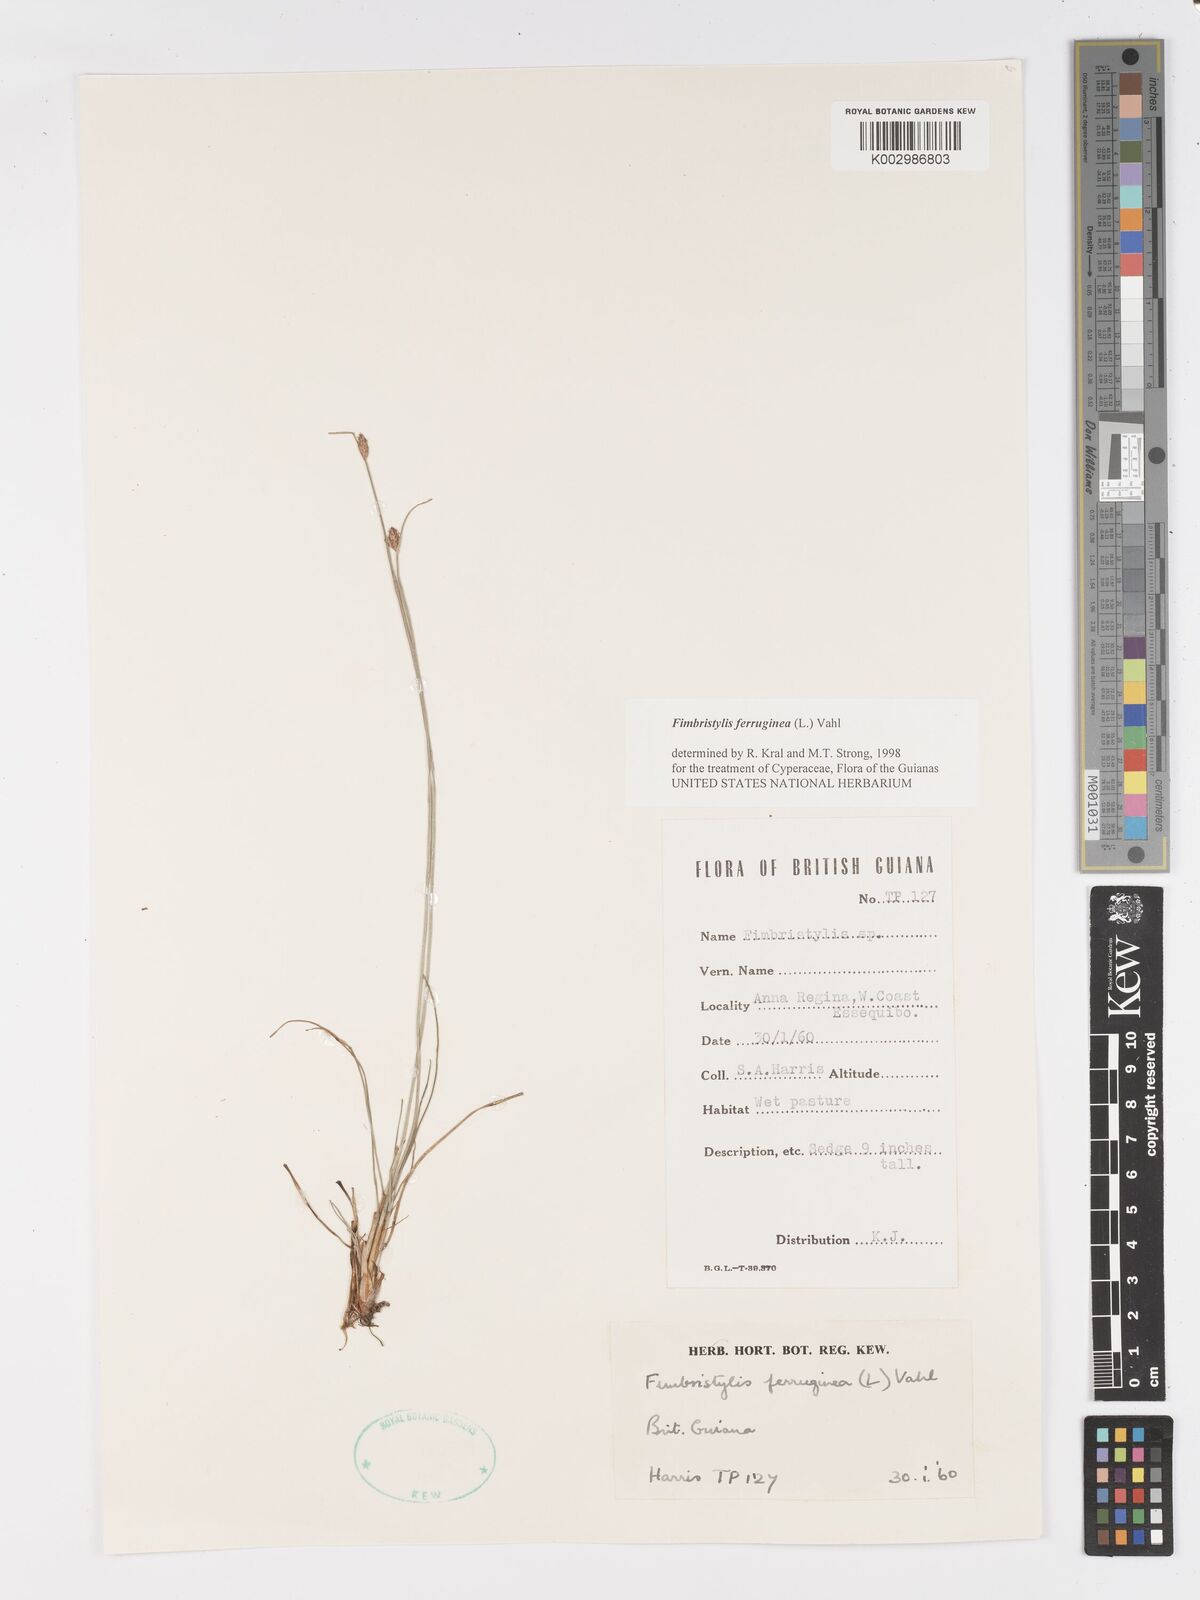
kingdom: Plantae
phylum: Tracheophyta
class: Liliopsida
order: Poales
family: Cyperaceae
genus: Fimbristylis
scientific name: Fimbristylis ferruginea
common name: West indian fimbry
